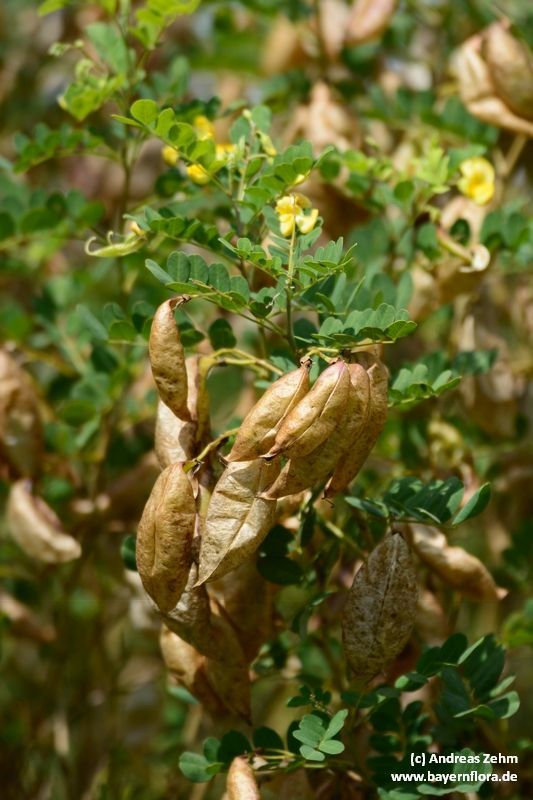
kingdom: Plantae
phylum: Tracheophyta
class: Magnoliopsida
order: Fabales
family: Fabaceae
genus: Colutea
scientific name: Colutea arborescens
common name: Bladder-senna
